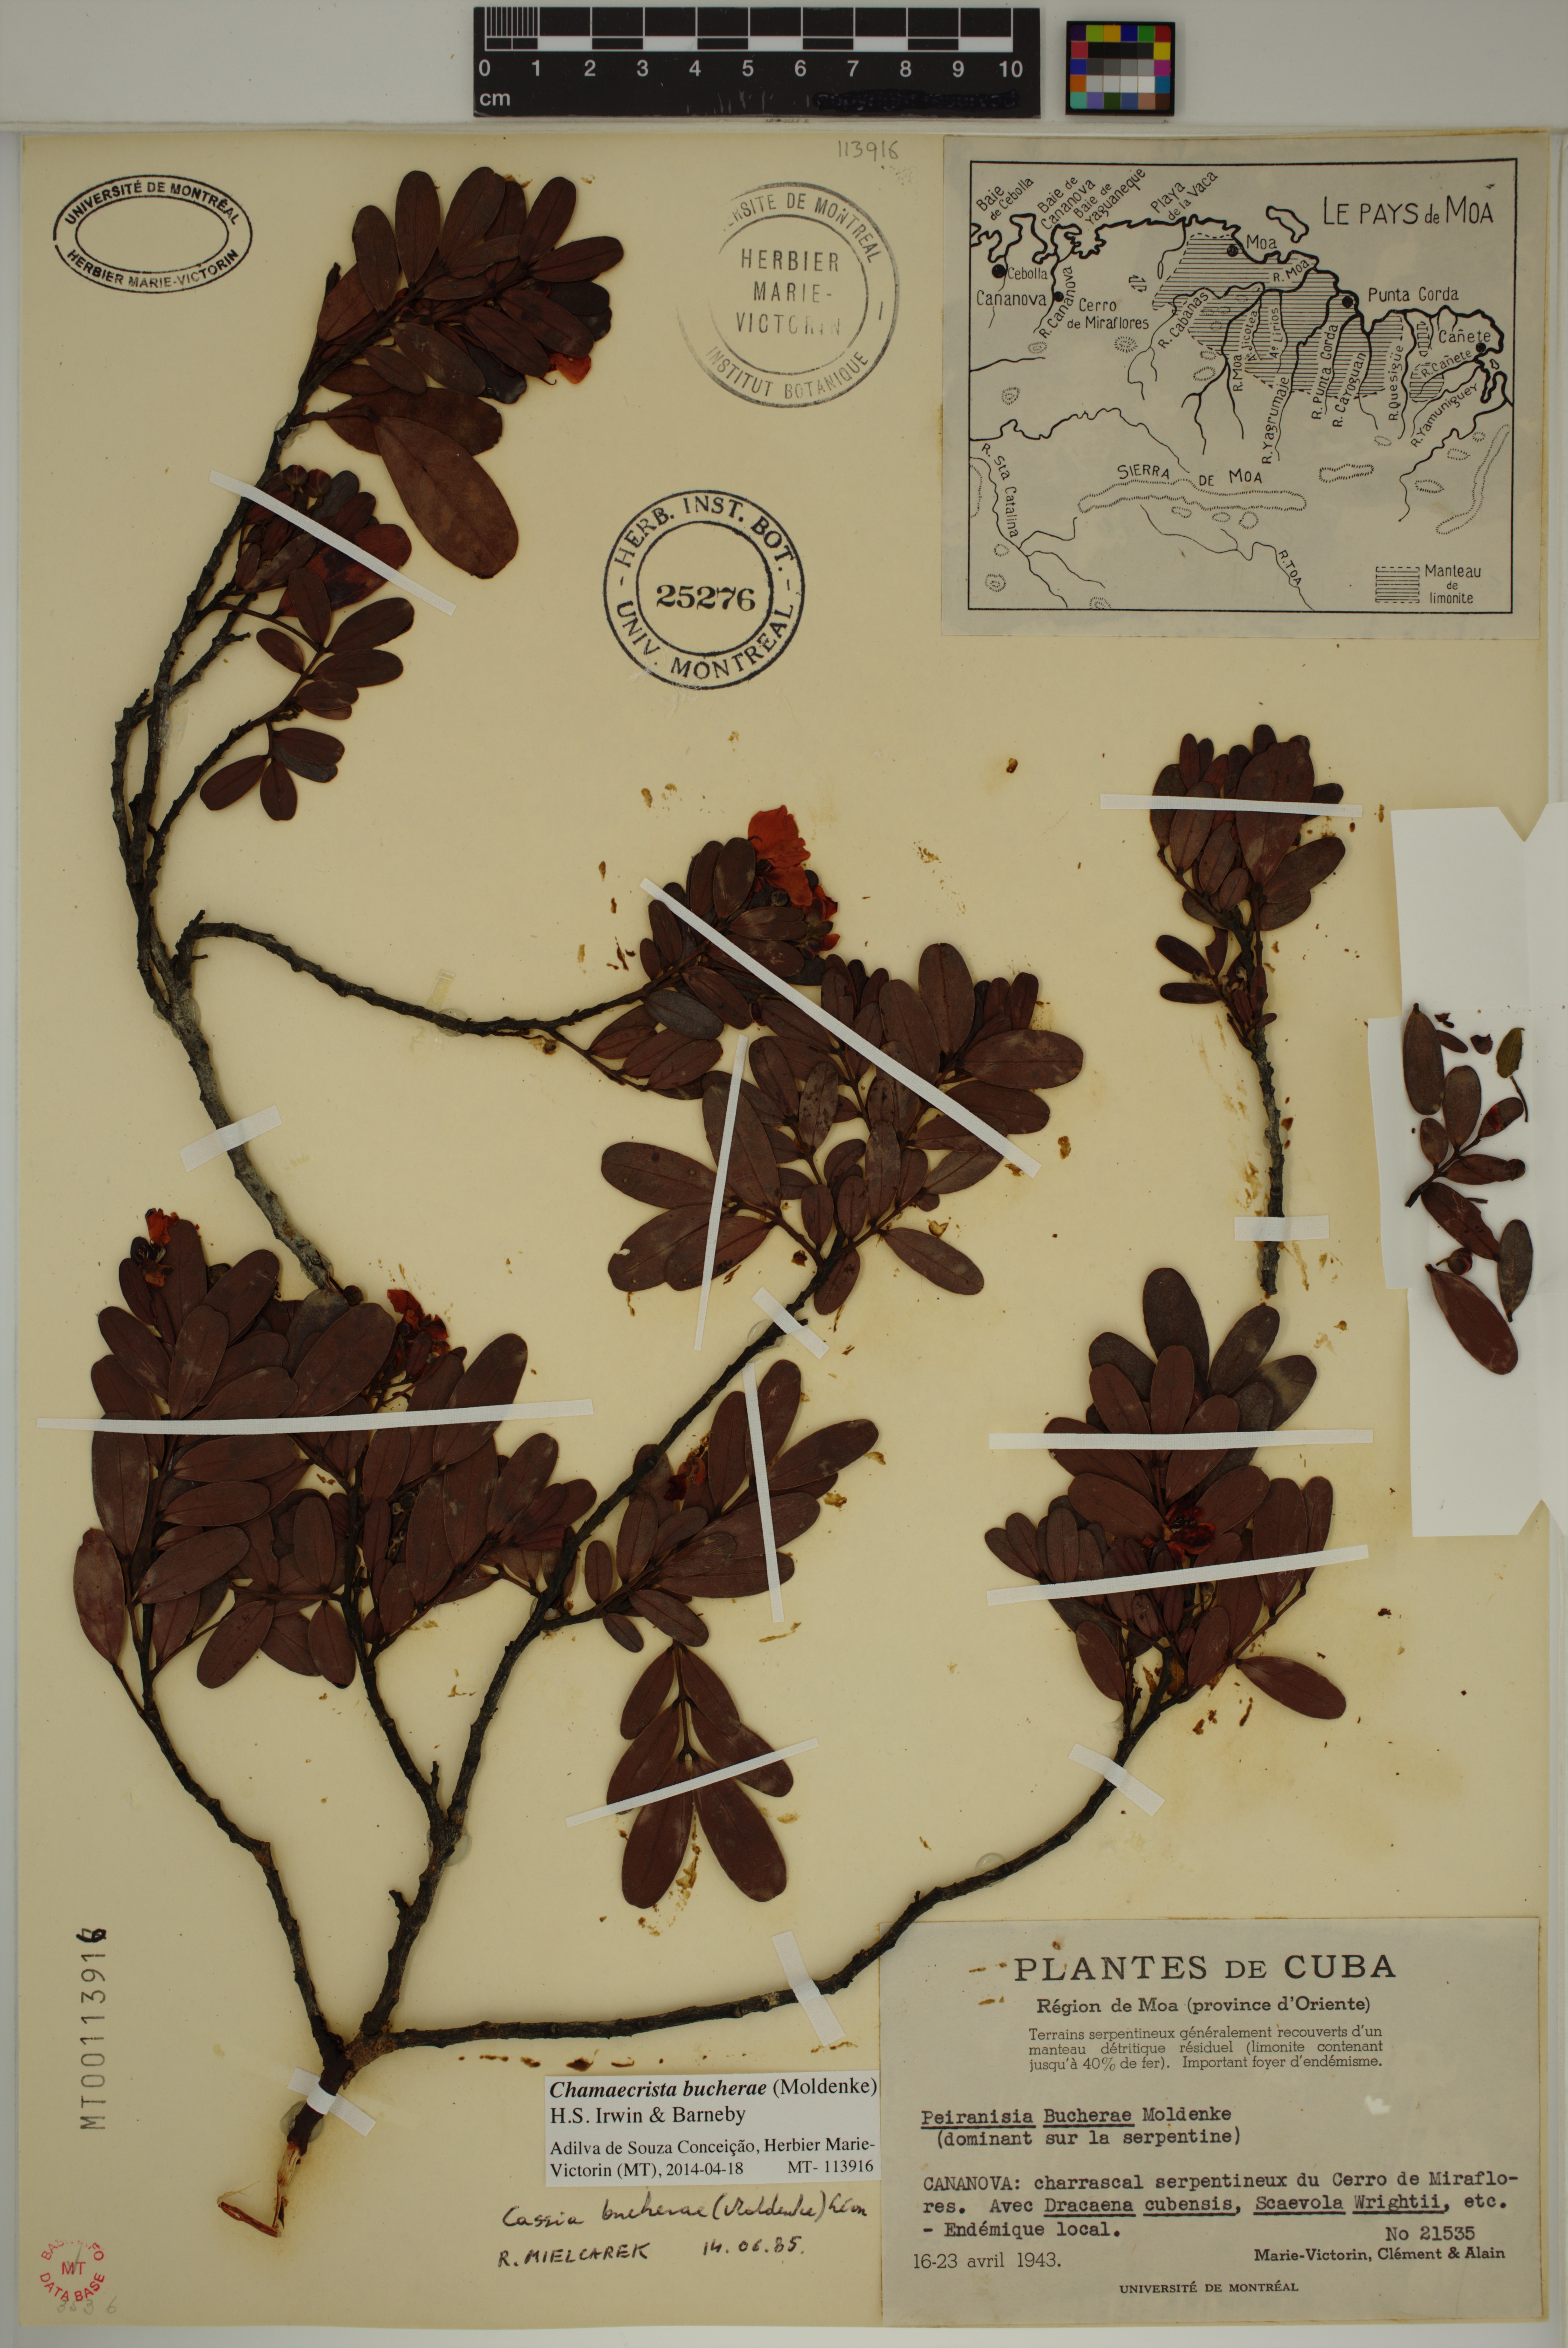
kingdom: Plantae
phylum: Tracheophyta
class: Magnoliopsida
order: Fabales
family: Fabaceae
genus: Chamaecrista
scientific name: Chamaecrista bucherae
